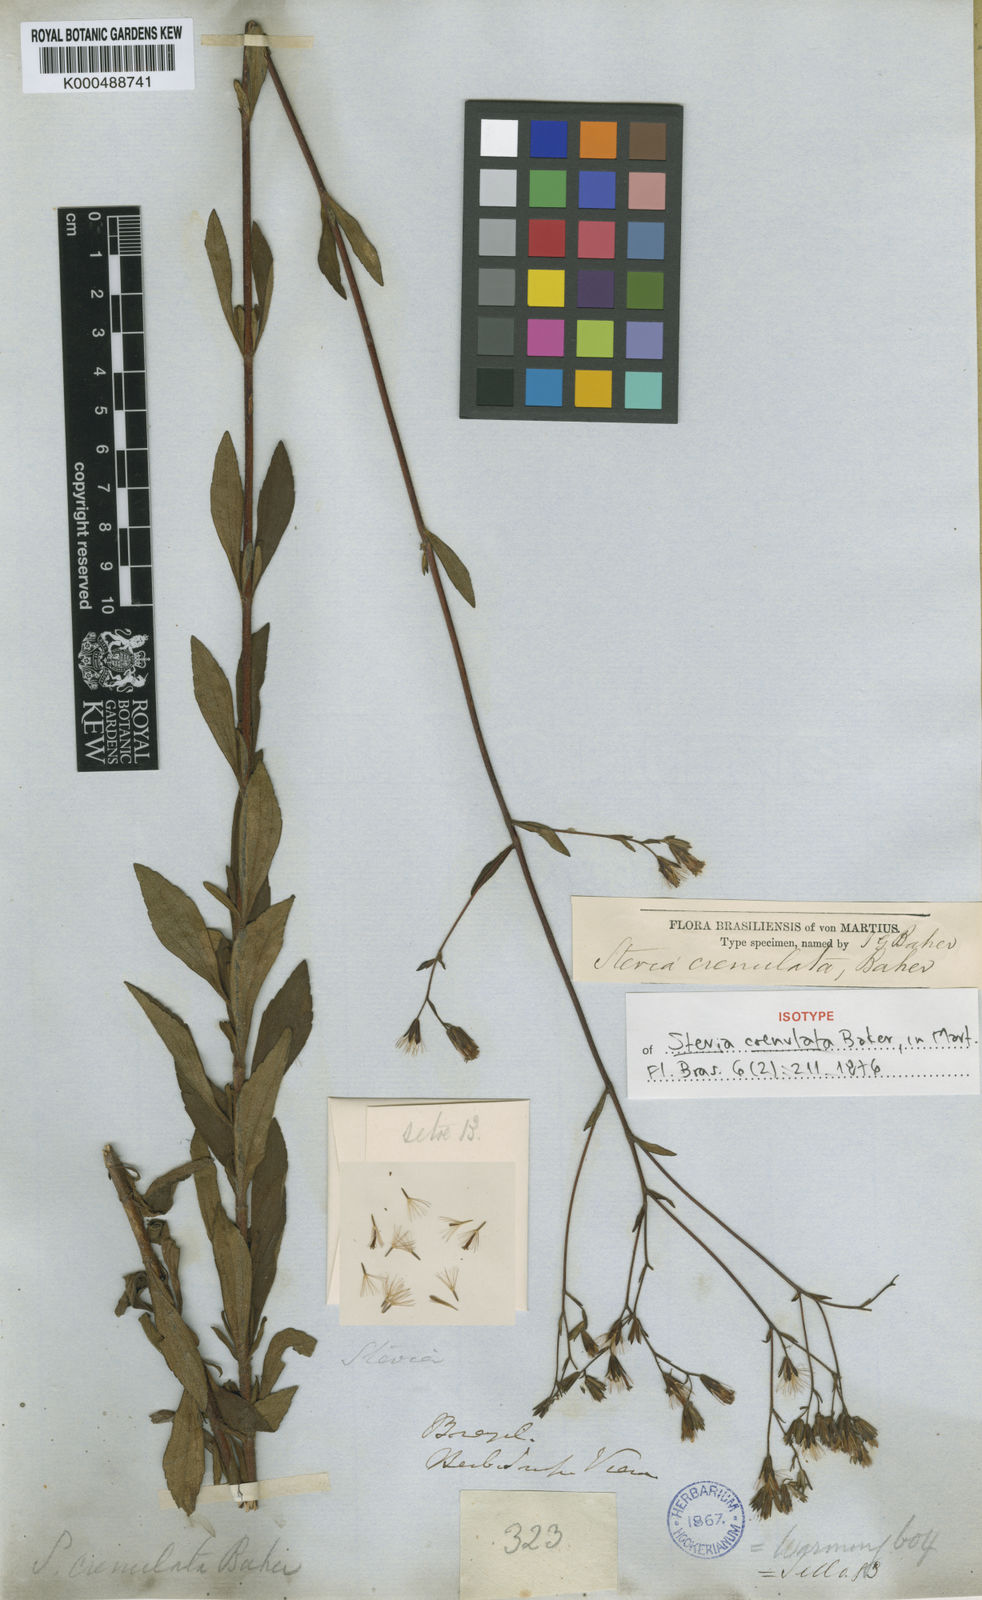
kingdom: Plantae
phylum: Tracheophyta
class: Magnoliopsida
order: Asterales
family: Asteraceae
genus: Stevia
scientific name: Stevia crenulata
